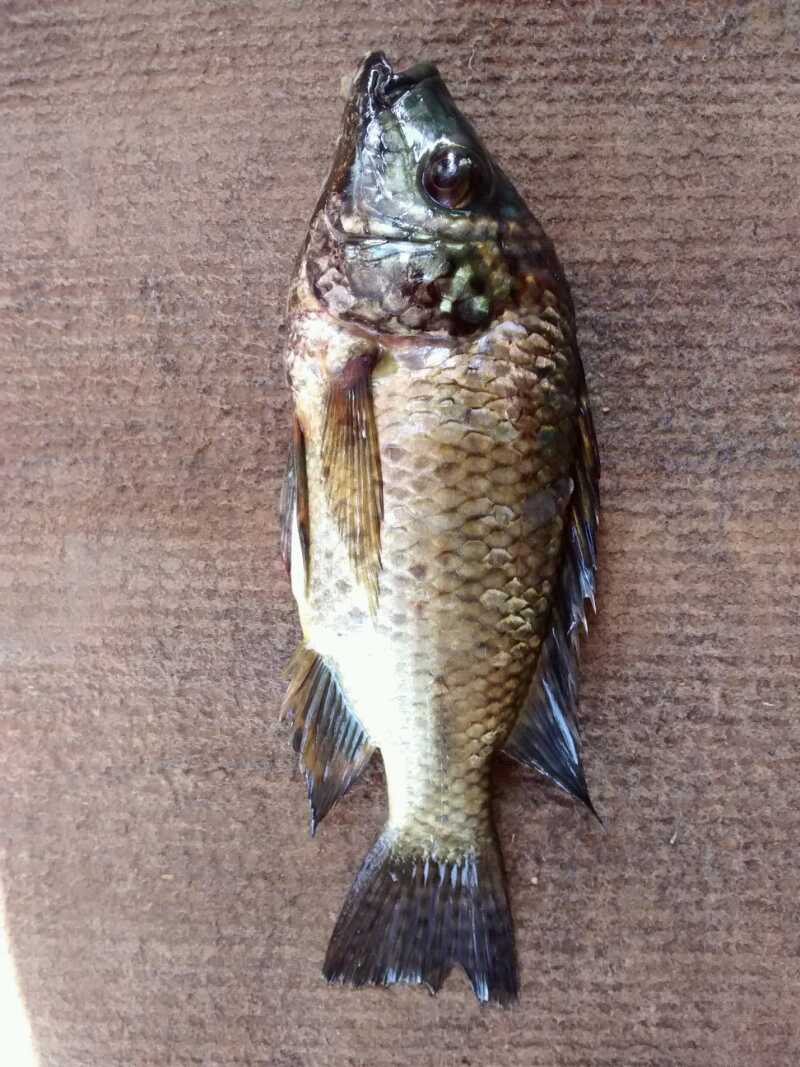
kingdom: Animalia
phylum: Chordata
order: Perciformes
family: Cichlidae
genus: Oreochromis
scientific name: Oreochromis shiranus
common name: Chilwa tilapia
